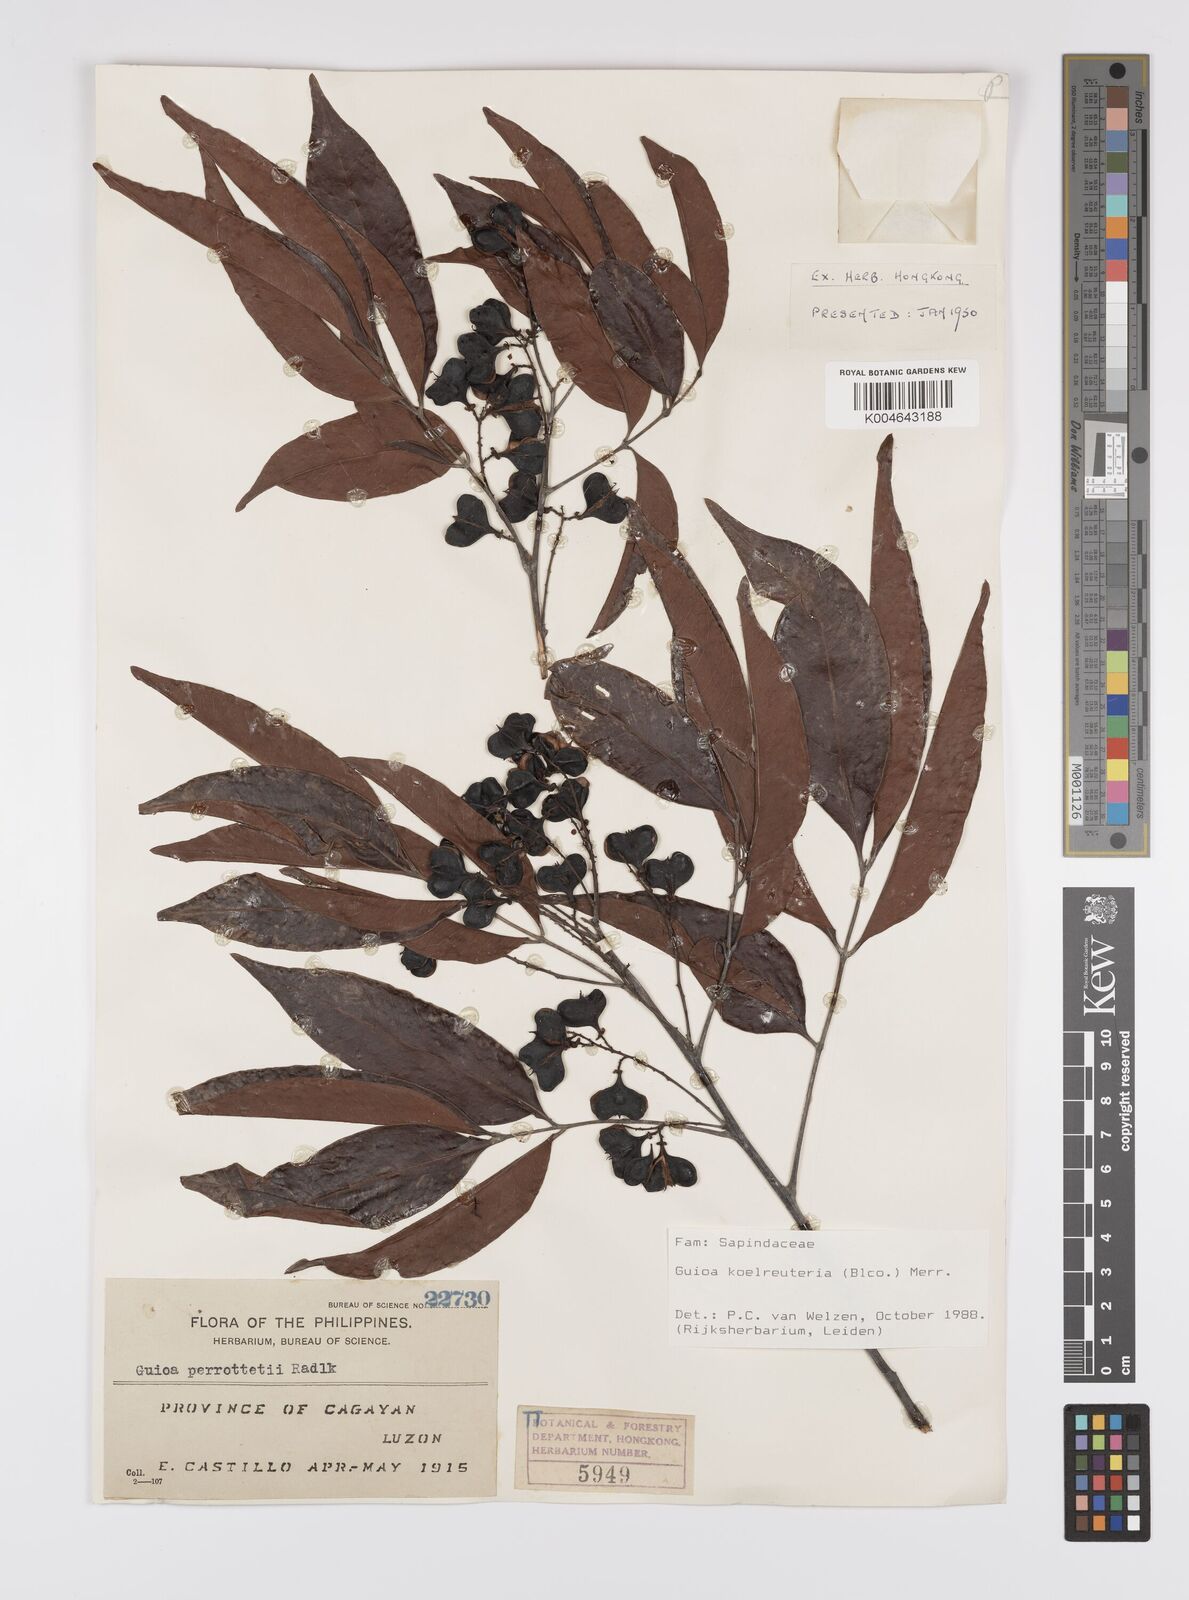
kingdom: Plantae
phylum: Tracheophyta
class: Magnoliopsida
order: Sapindales
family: Sapindaceae
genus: Guioa
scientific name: Guioa koelreuteria
